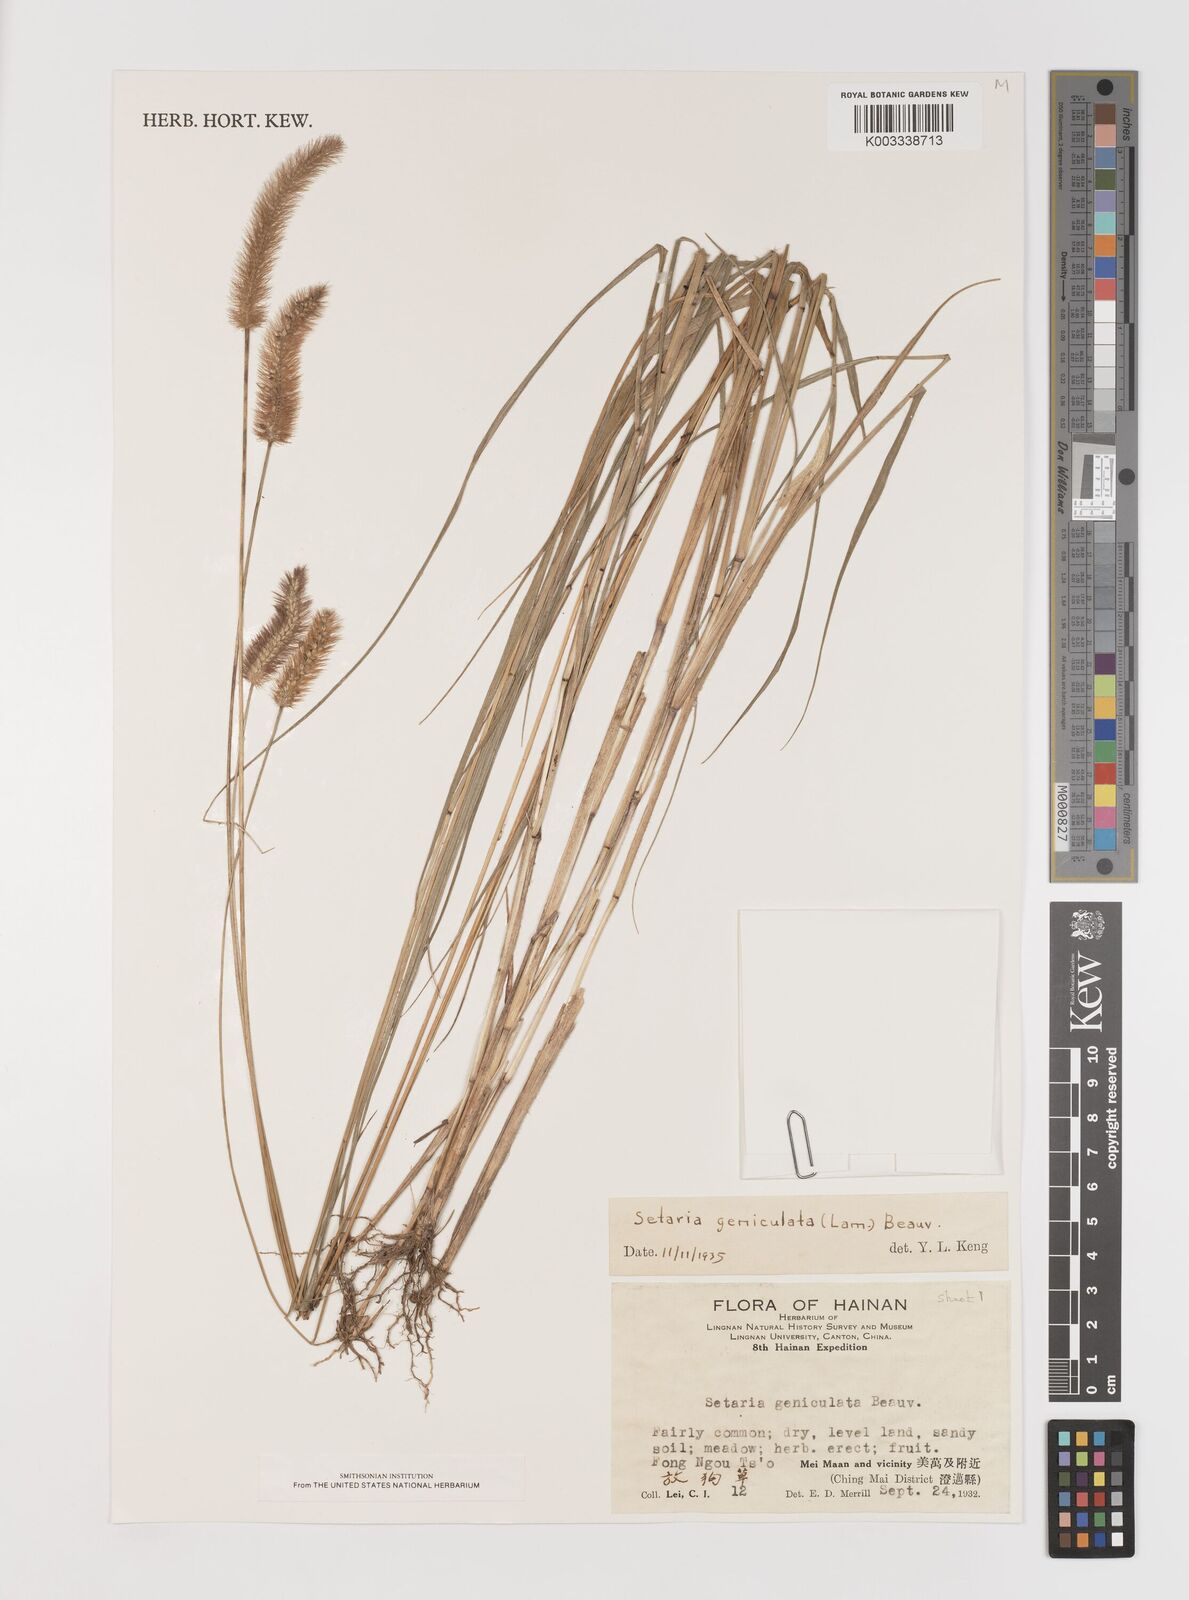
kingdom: Plantae
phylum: Tracheophyta
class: Liliopsida
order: Poales
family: Poaceae
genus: Setaria
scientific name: Setaria parviflora
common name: Knotroot bristle-grass
